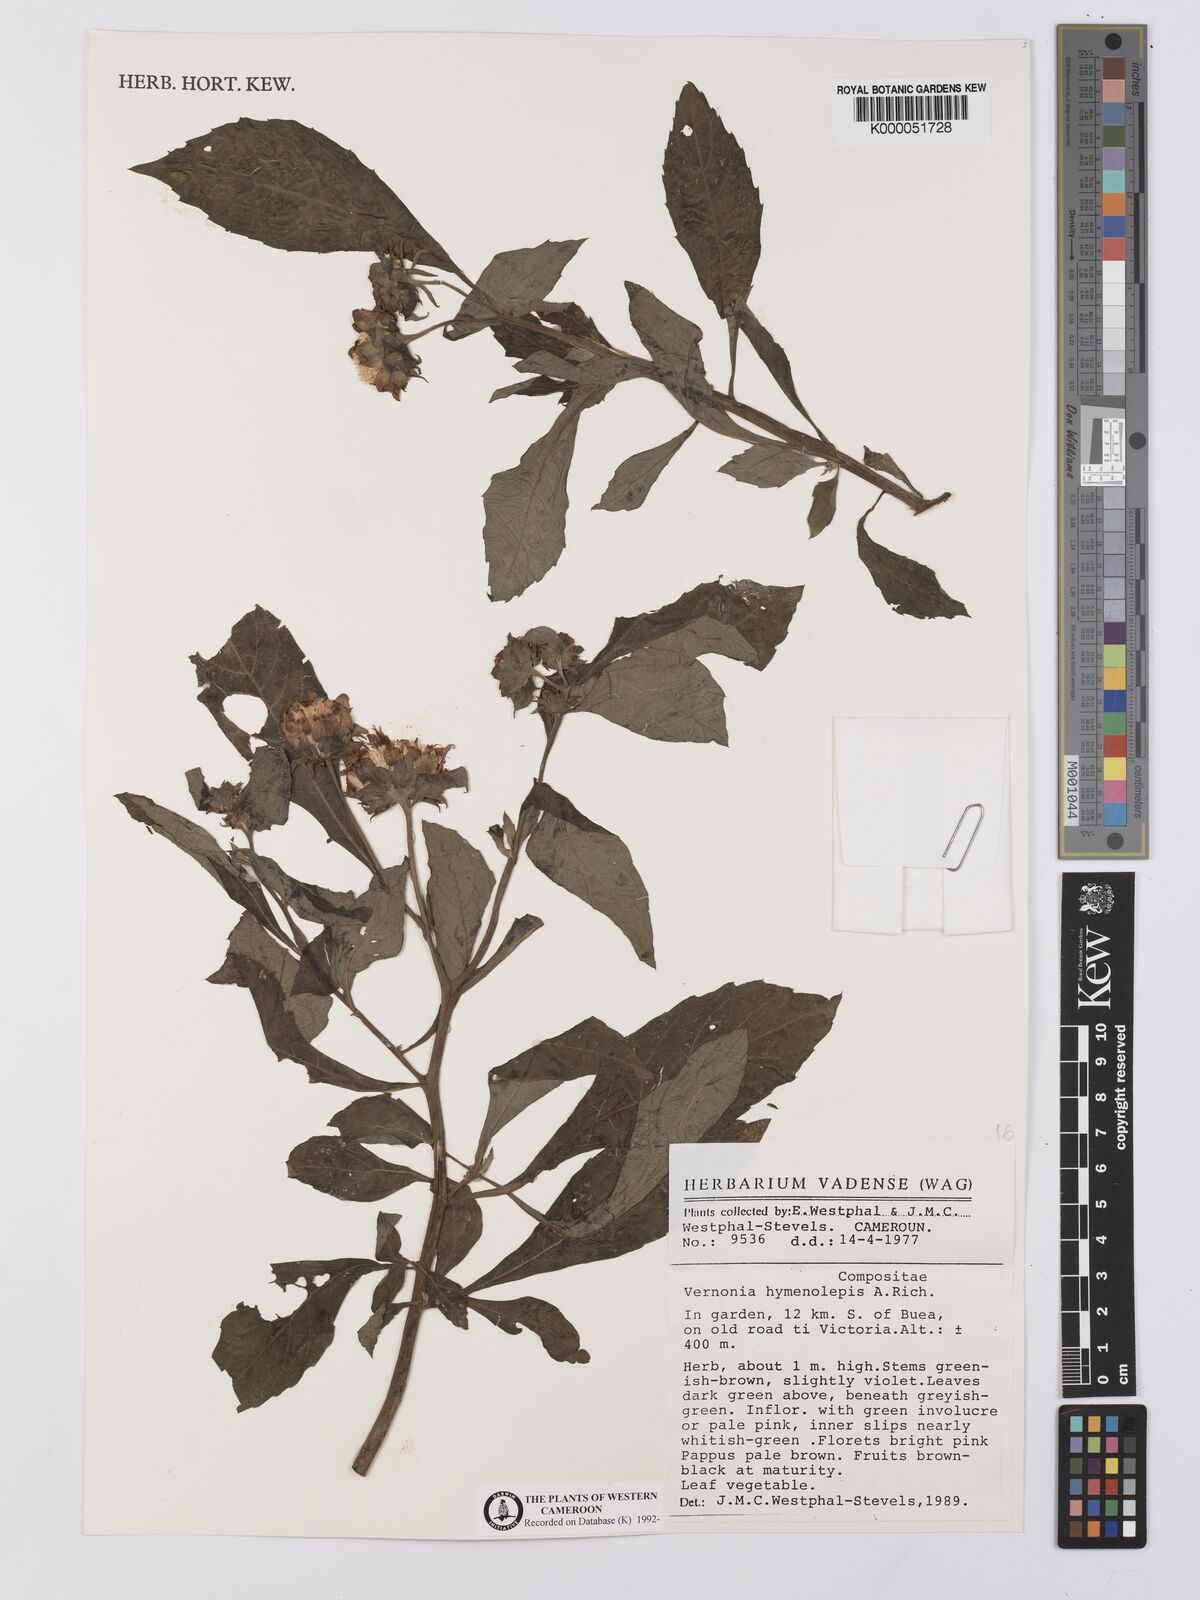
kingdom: Plantae
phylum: Tracheophyta
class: Magnoliopsida
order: Asterales
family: Asteraceae
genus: Baccharoides
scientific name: Baccharoides hymenolepis
